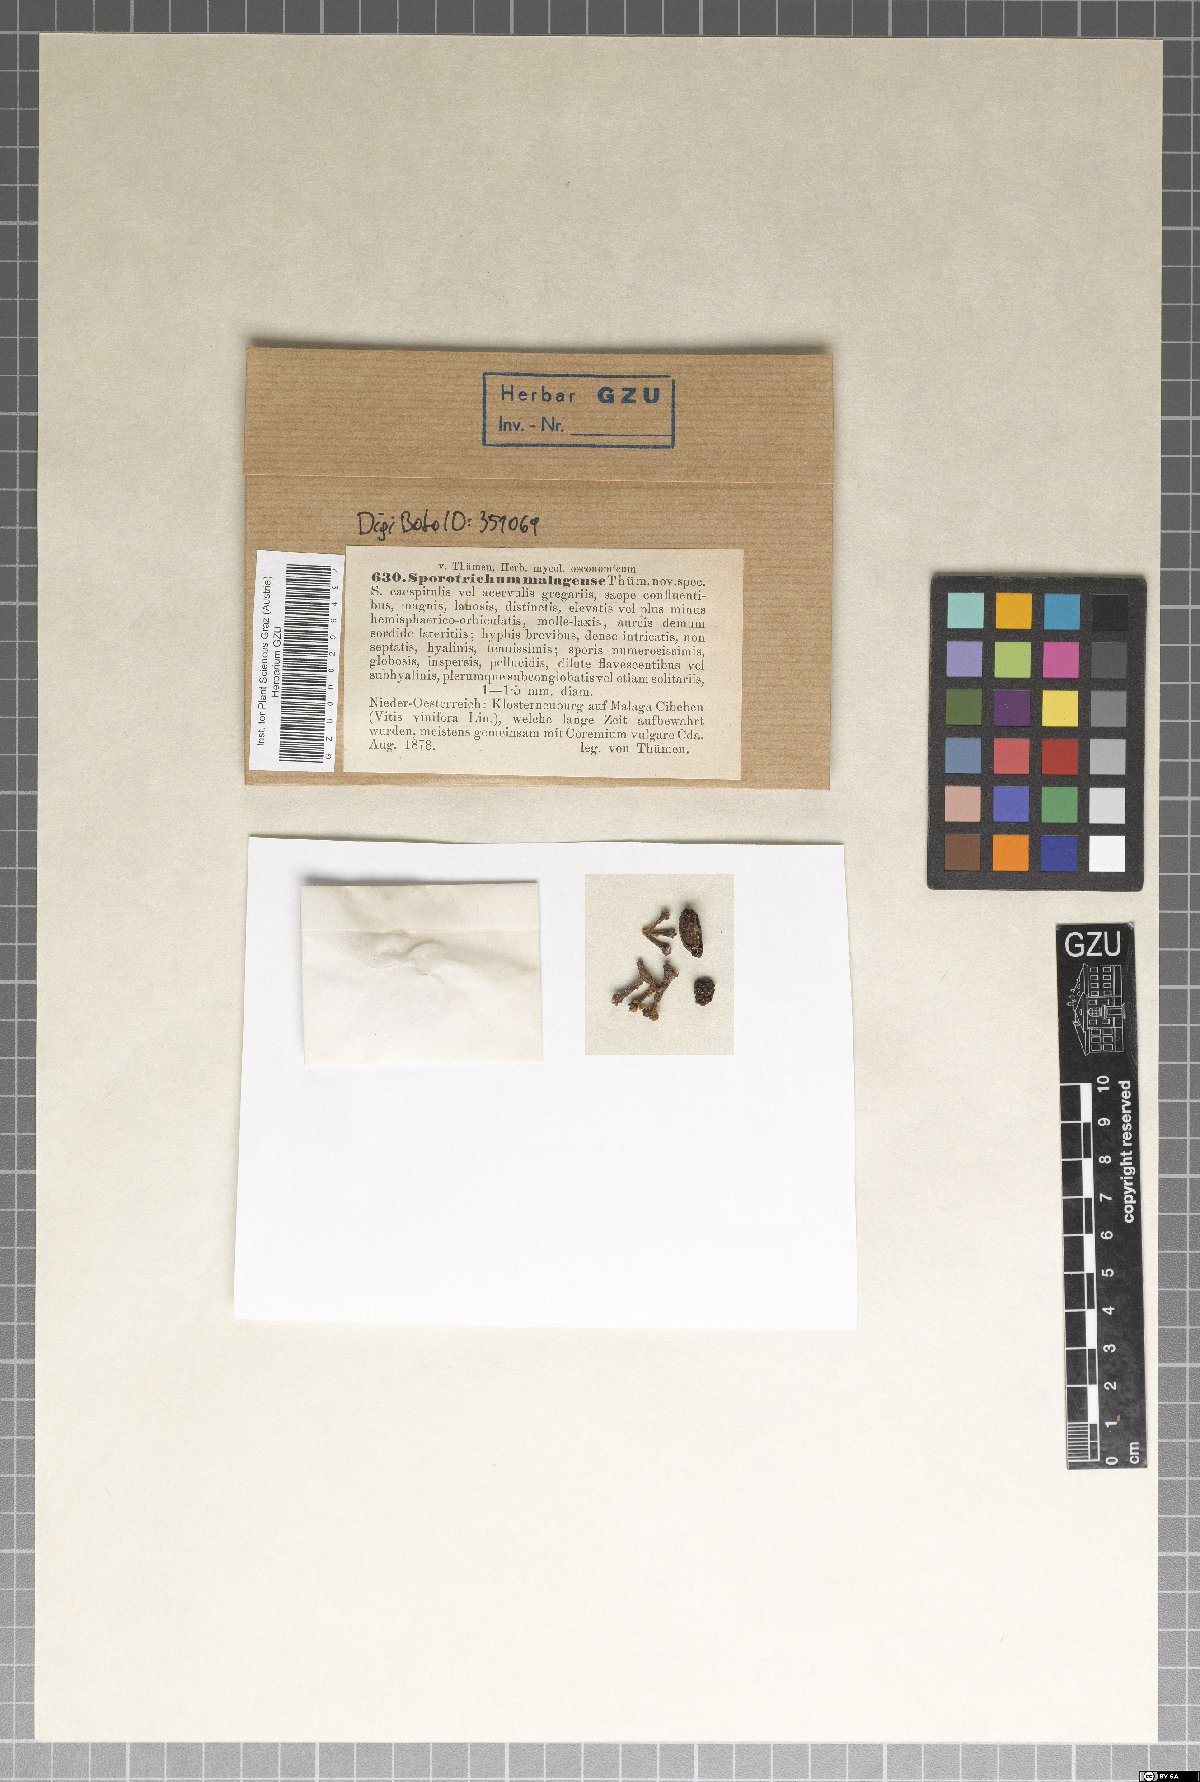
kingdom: Fungi
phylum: Ascomycota
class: Eurotiomycetes
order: Eurotiales
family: Aspergillaceae
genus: Talaromyces
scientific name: Talaromyces malagensis
